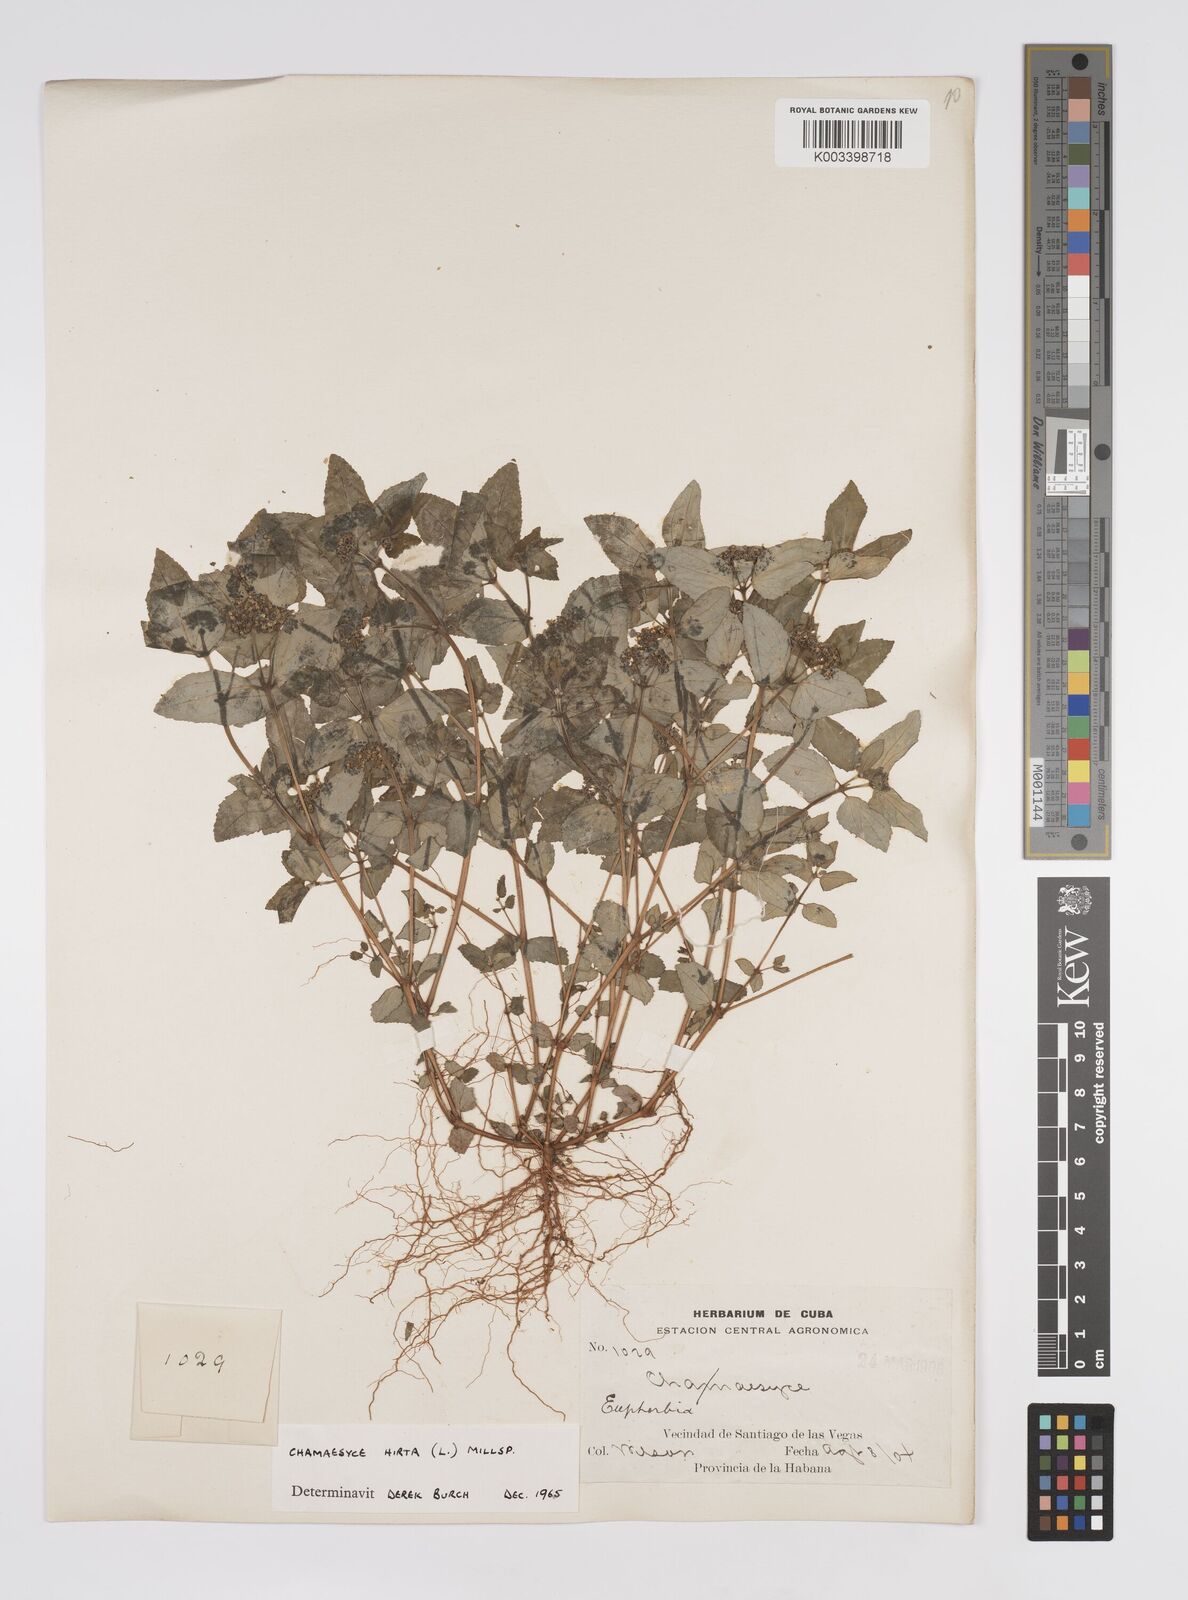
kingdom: Plantae
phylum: Tracheophyta
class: Magnoliopsida
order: Malpighiales
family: Euphorbiaceae
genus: Euphorbia
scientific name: Euphorbia hirta
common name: Pillpod sandmat
